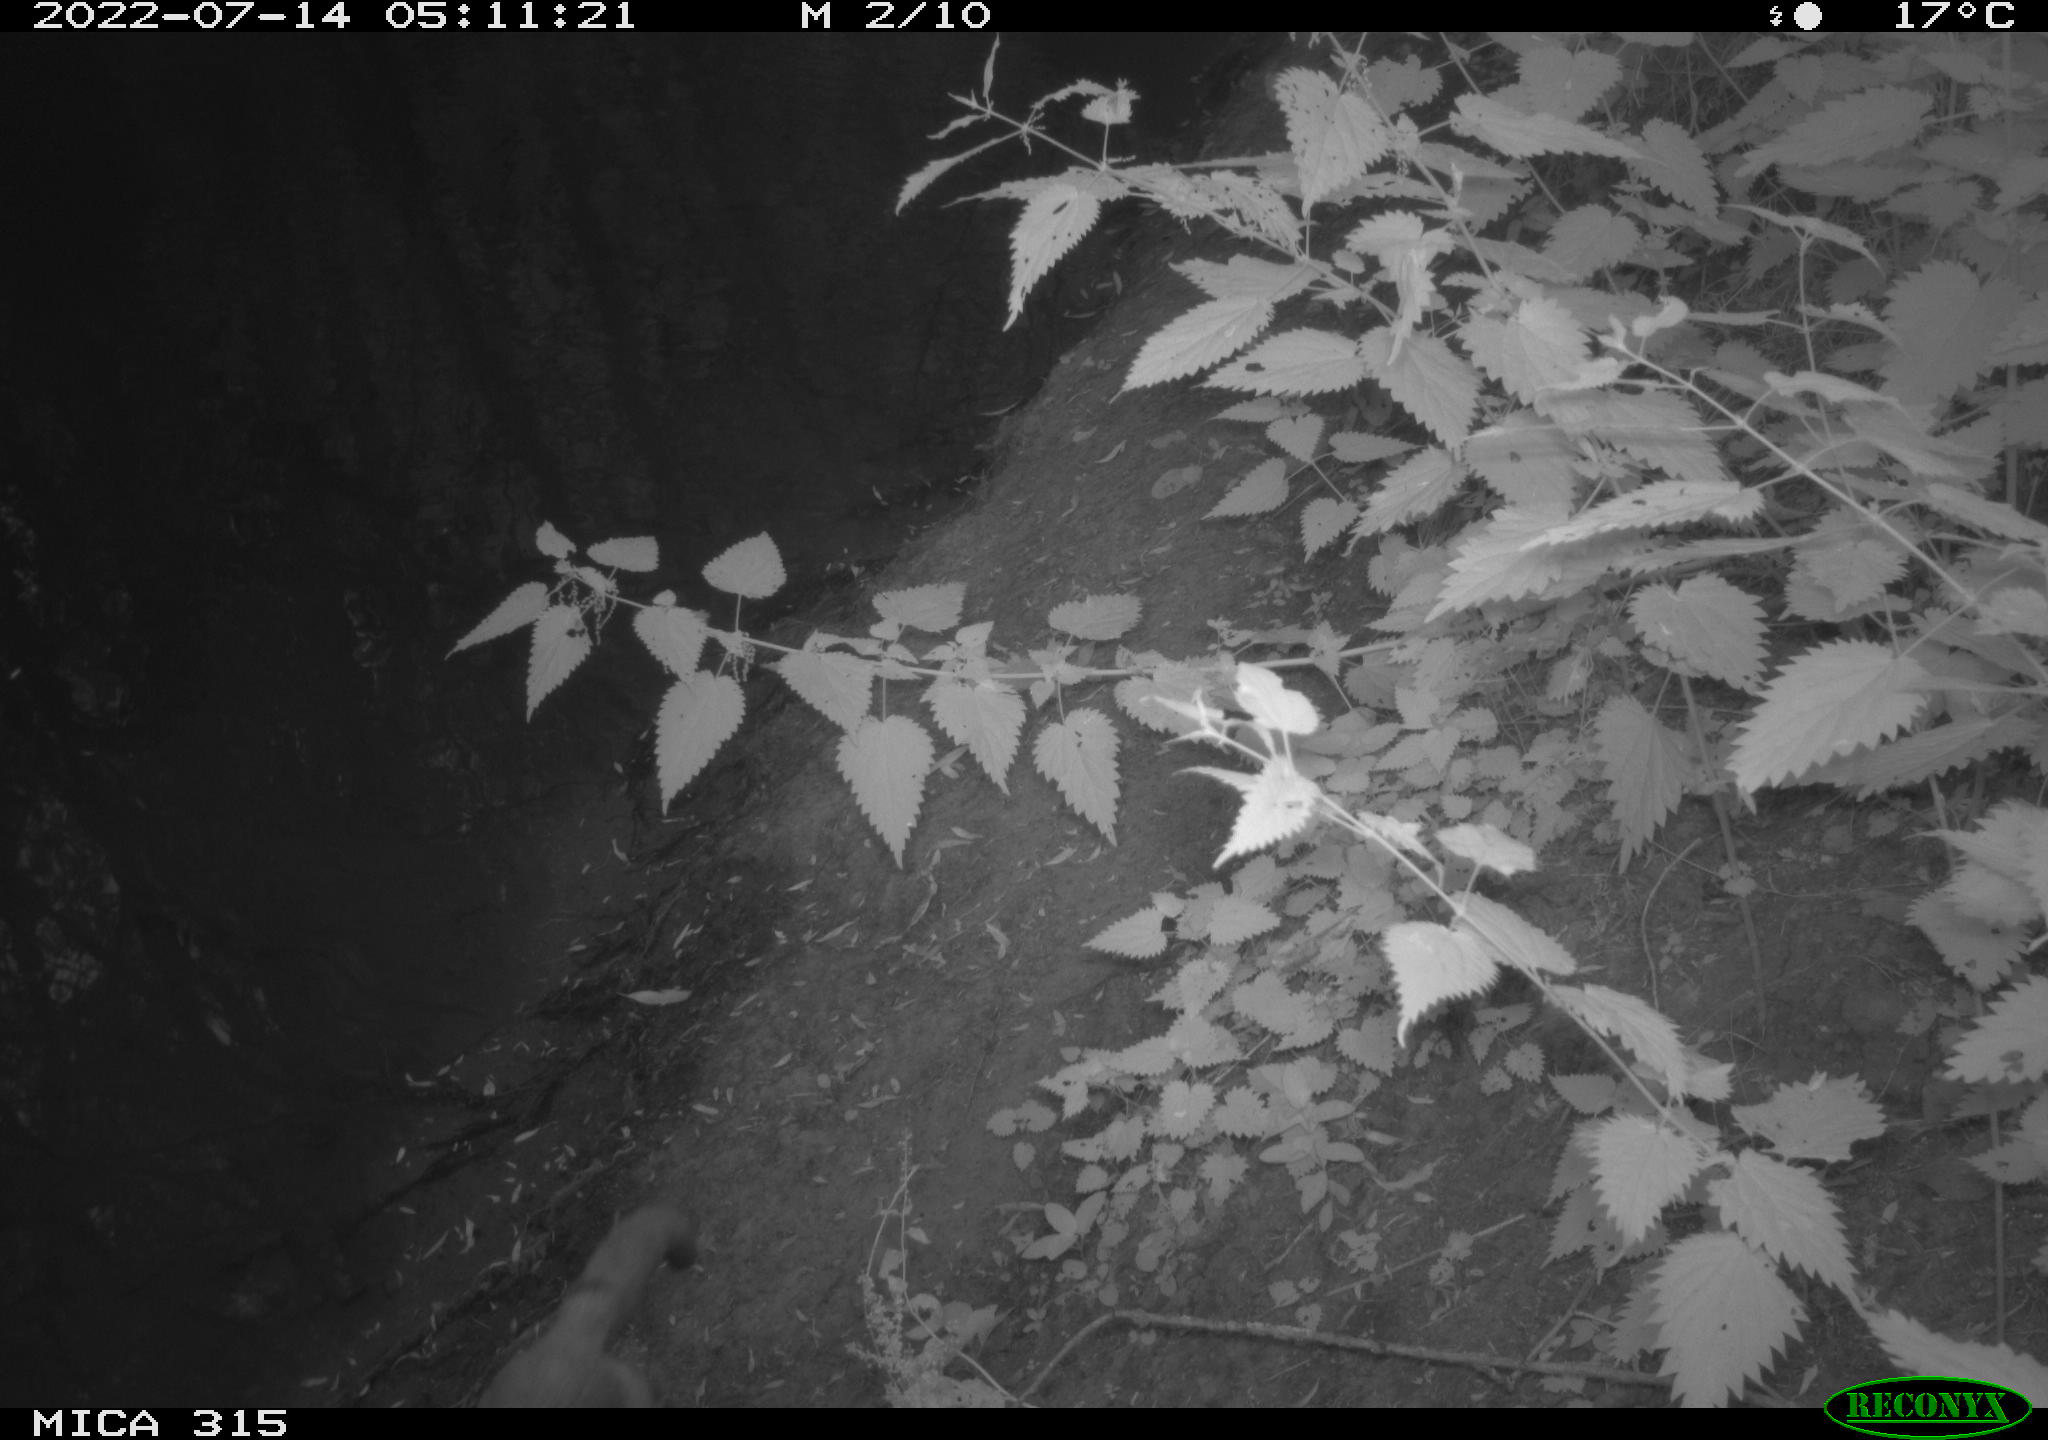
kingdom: Animalia
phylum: Chordata
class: Mammalia
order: Carnivora
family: Canidae
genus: Vulpes
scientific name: Vulpes vulpes
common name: Red fox
